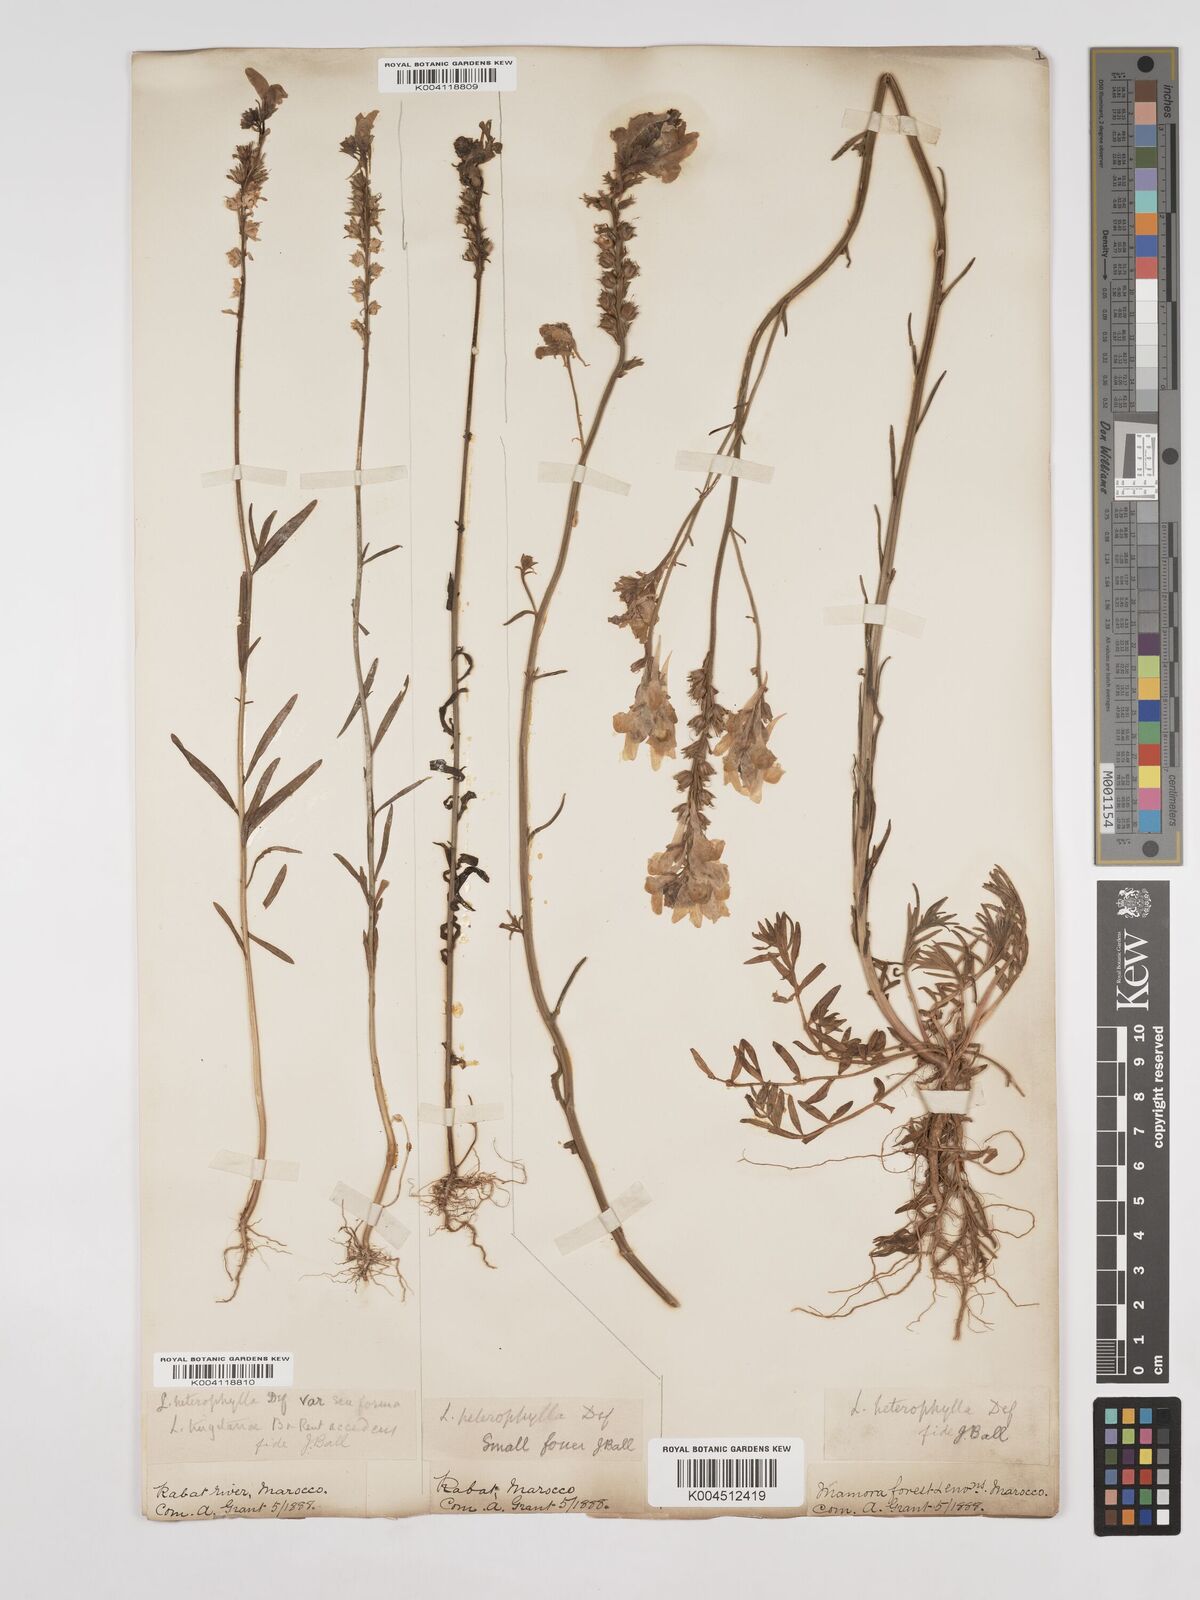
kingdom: Plantae
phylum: Tracheophyta
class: Magnoliopsida
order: Lamiales
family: Plantaginaceae
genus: Linaria
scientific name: Linaria multicaulis
